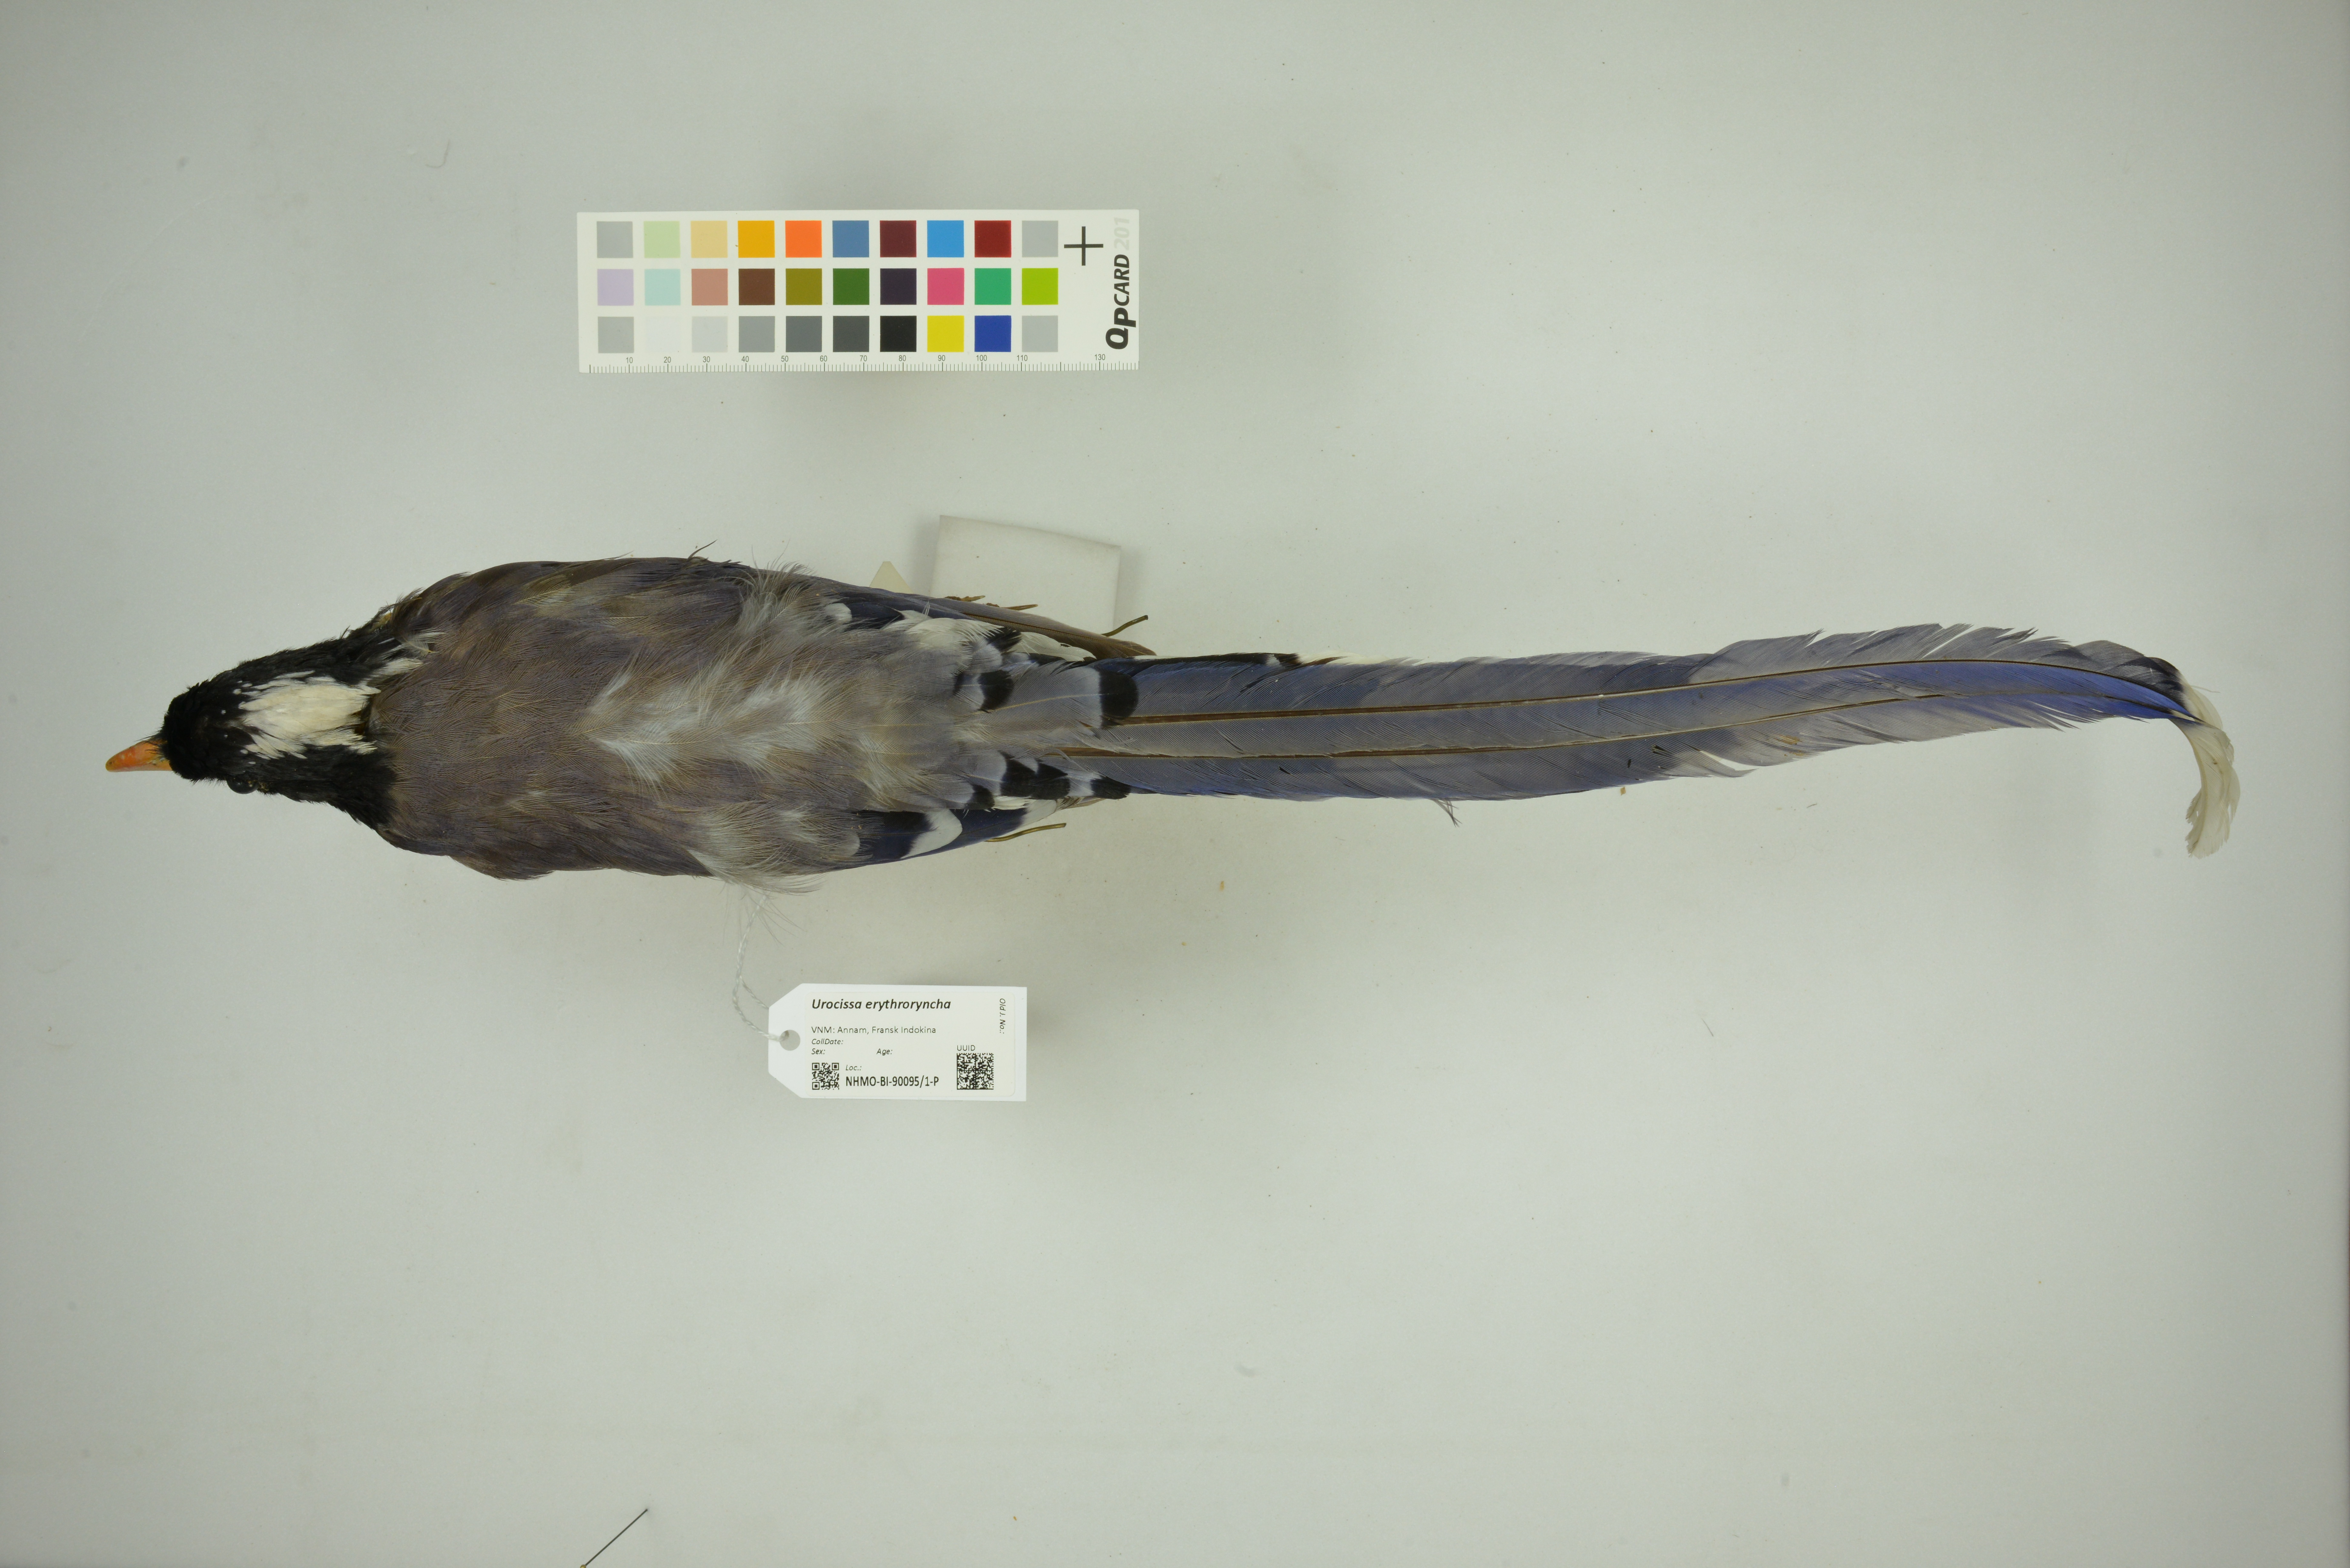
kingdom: Animalia
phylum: Chordata
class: Aves
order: Passeriformes
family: Corvidae
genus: Urocissa
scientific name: Urocissa erythroryncha
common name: Red-billed blue magpie
